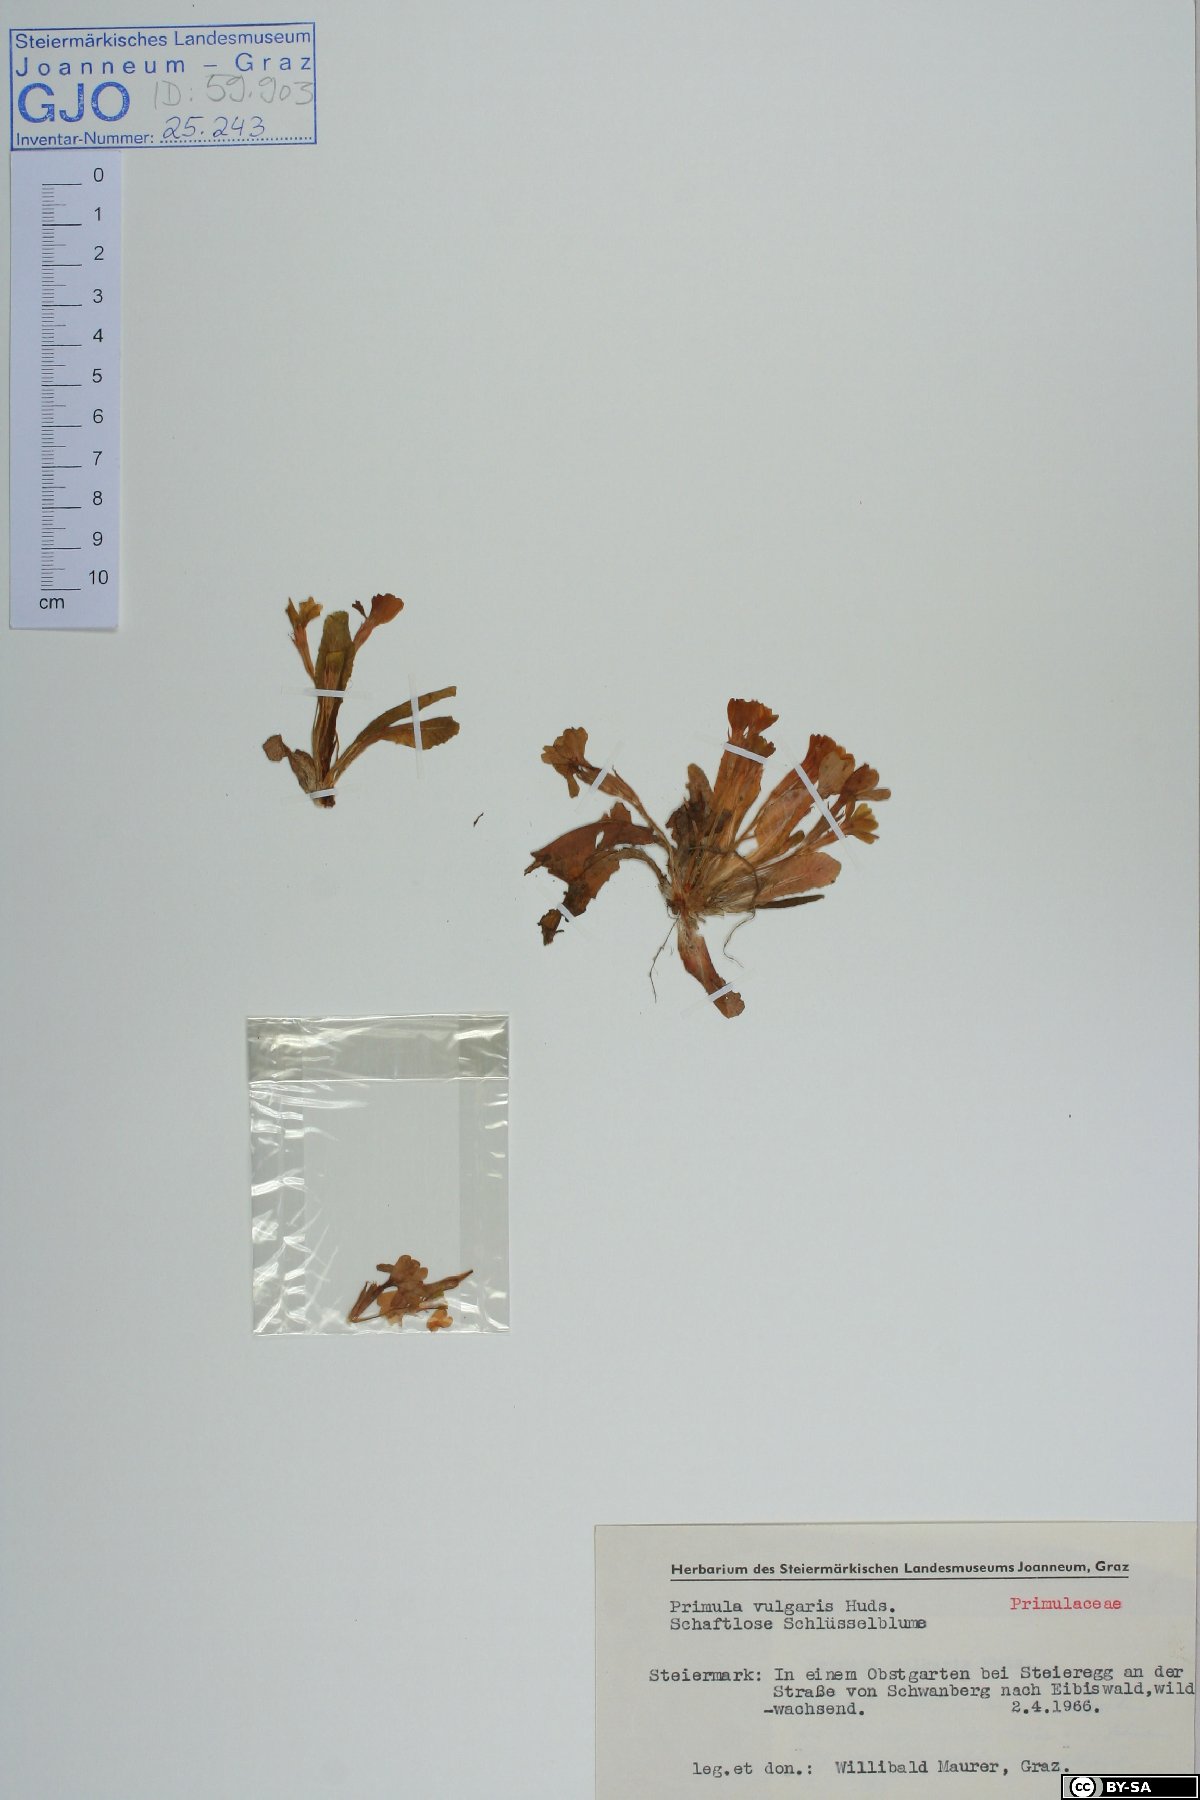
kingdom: Plantae
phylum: Tracheophyta
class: Magnoliopsida
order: Ericales
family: Primulaceae
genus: Primula
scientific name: Primula vulgaris
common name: Primrose
